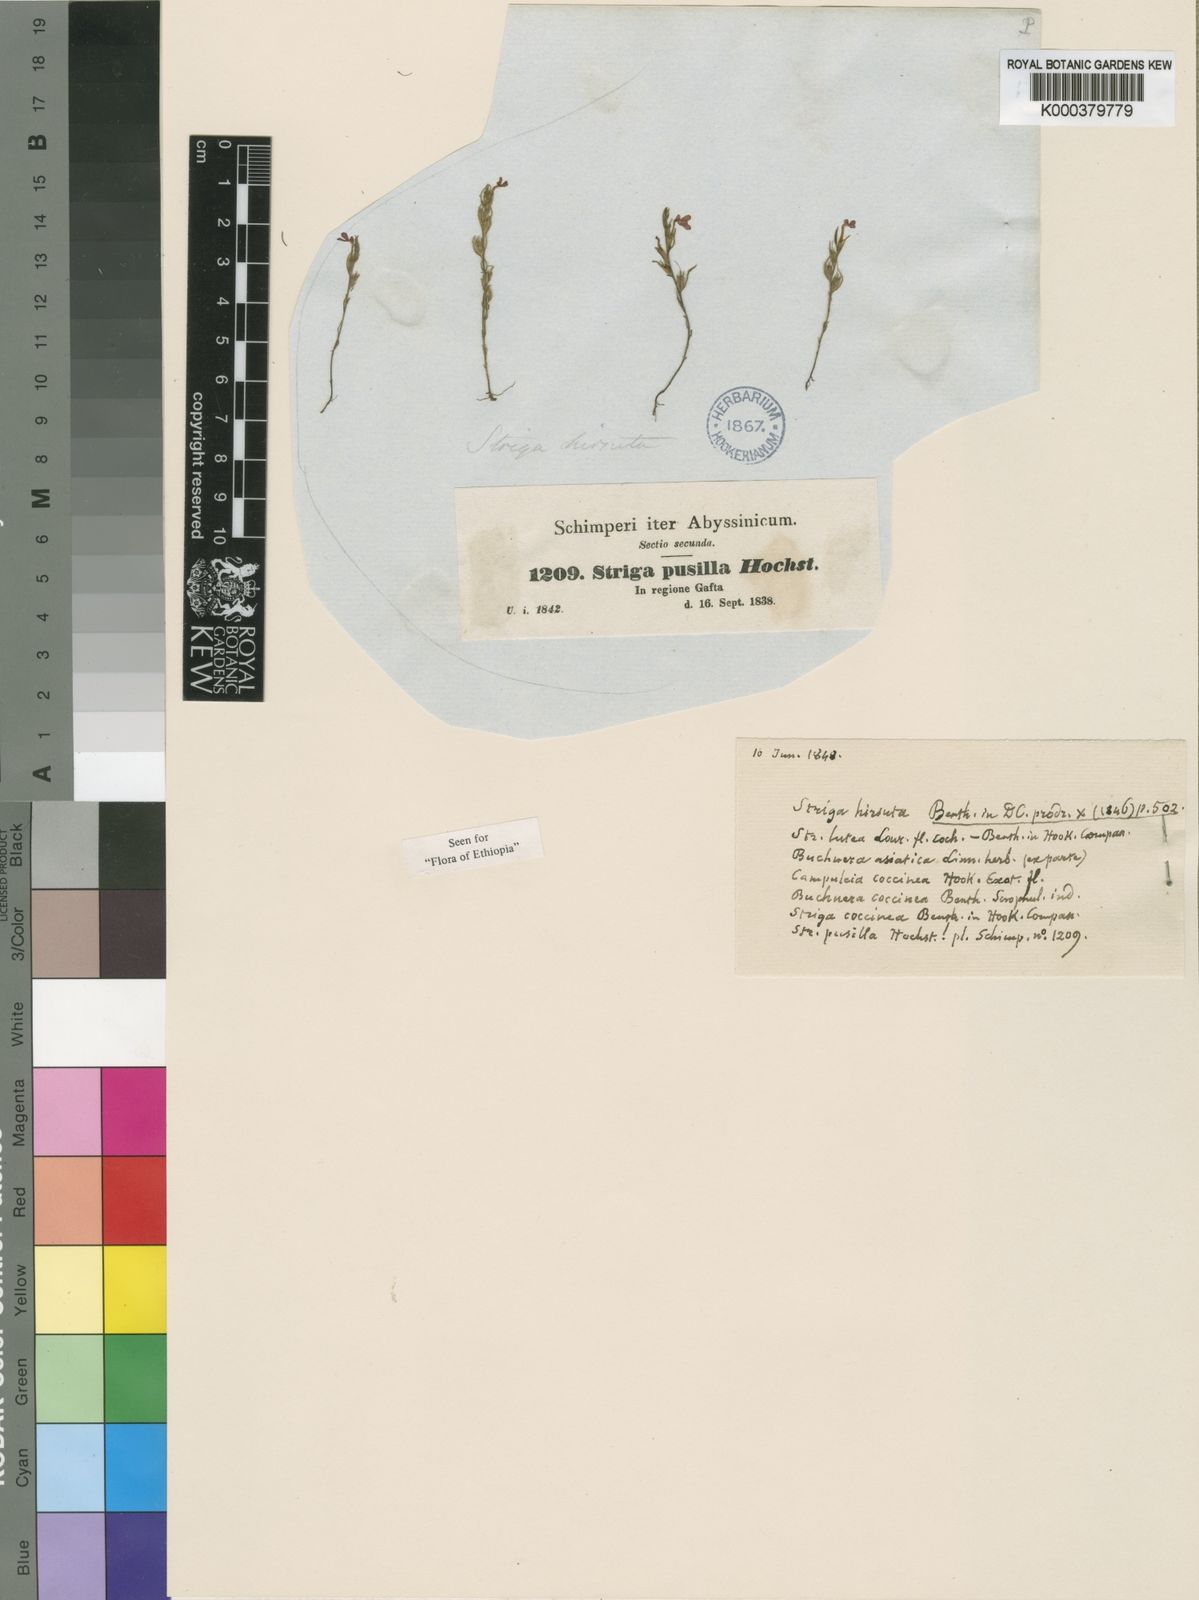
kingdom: Plantae
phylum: Tracheophyta
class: Magnoliopsida
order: Lamiales
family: Orobanchaceae
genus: Striga
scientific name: Striga asiatica
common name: Asiatic witchweed
